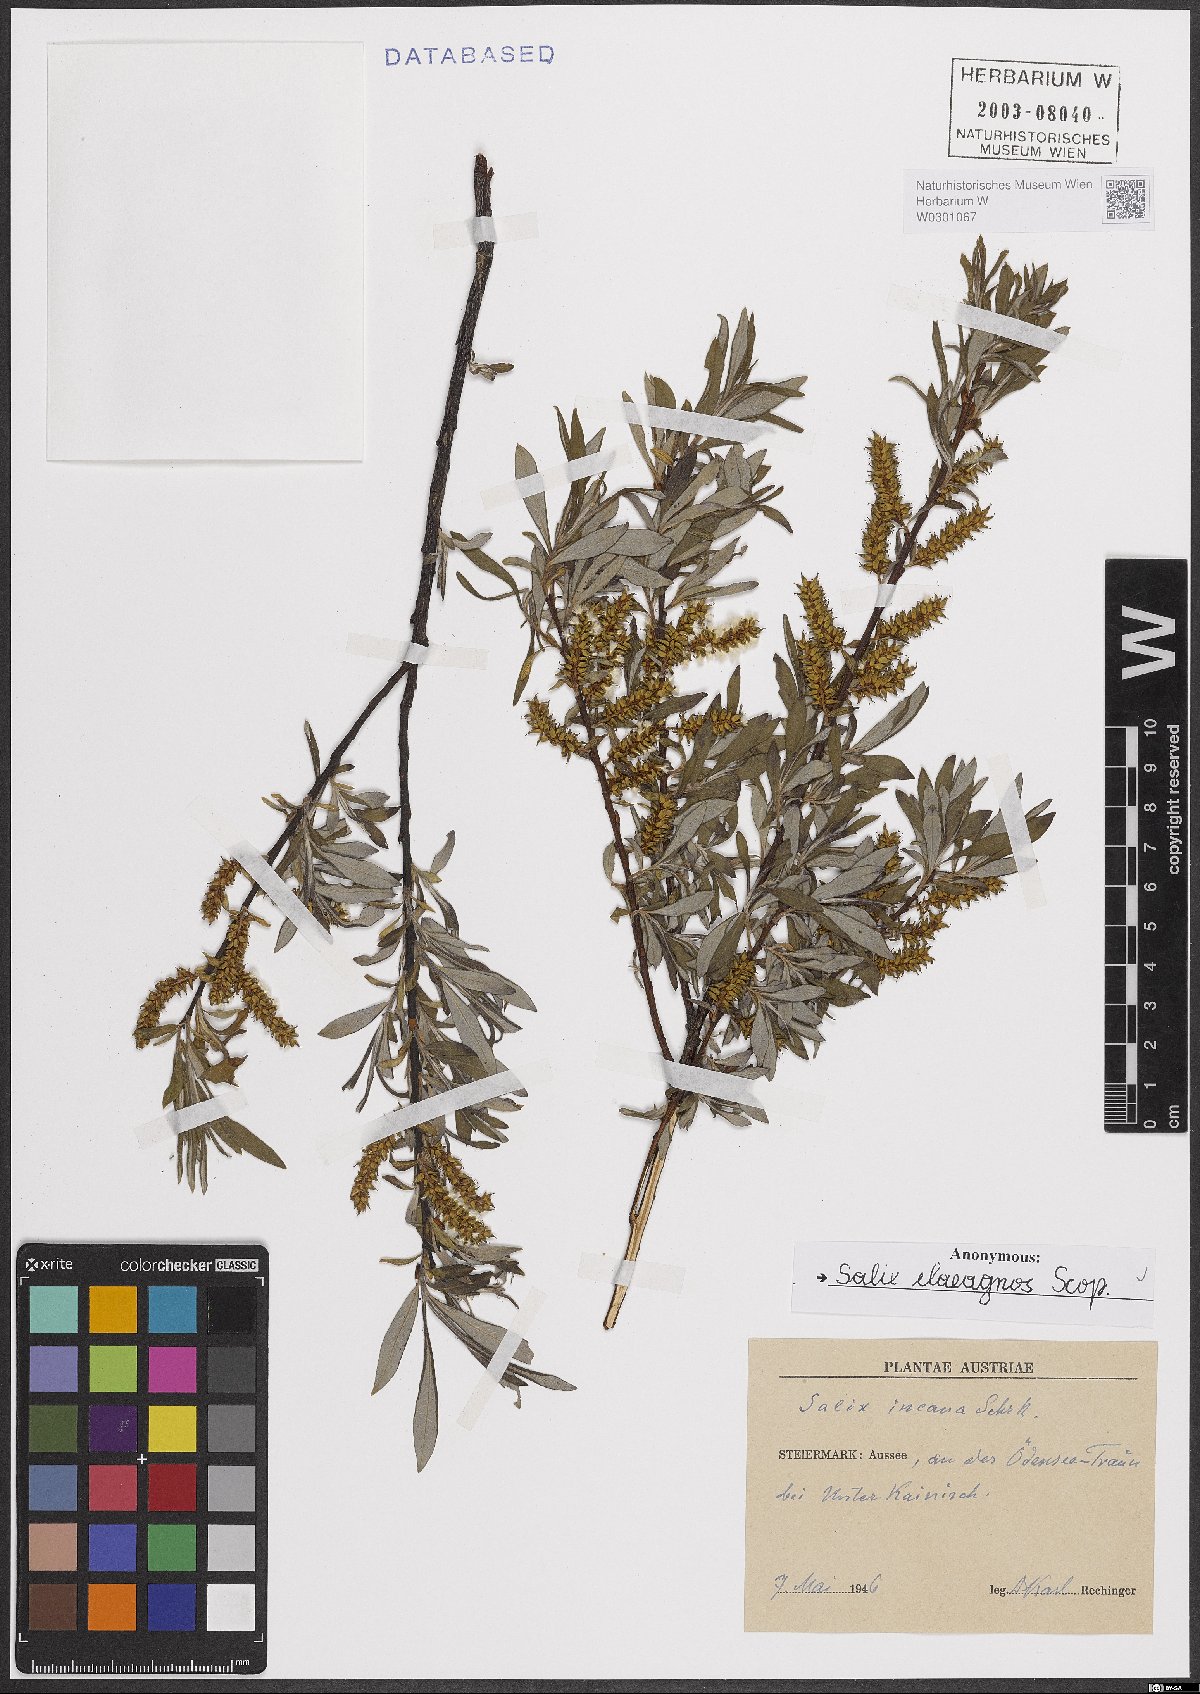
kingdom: Plantae
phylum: Tracheophyta
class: Magnoliopsida
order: Malpighiales
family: Salicaceae
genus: Salix
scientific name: Salix eleagnos
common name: Elaeagnus willow
